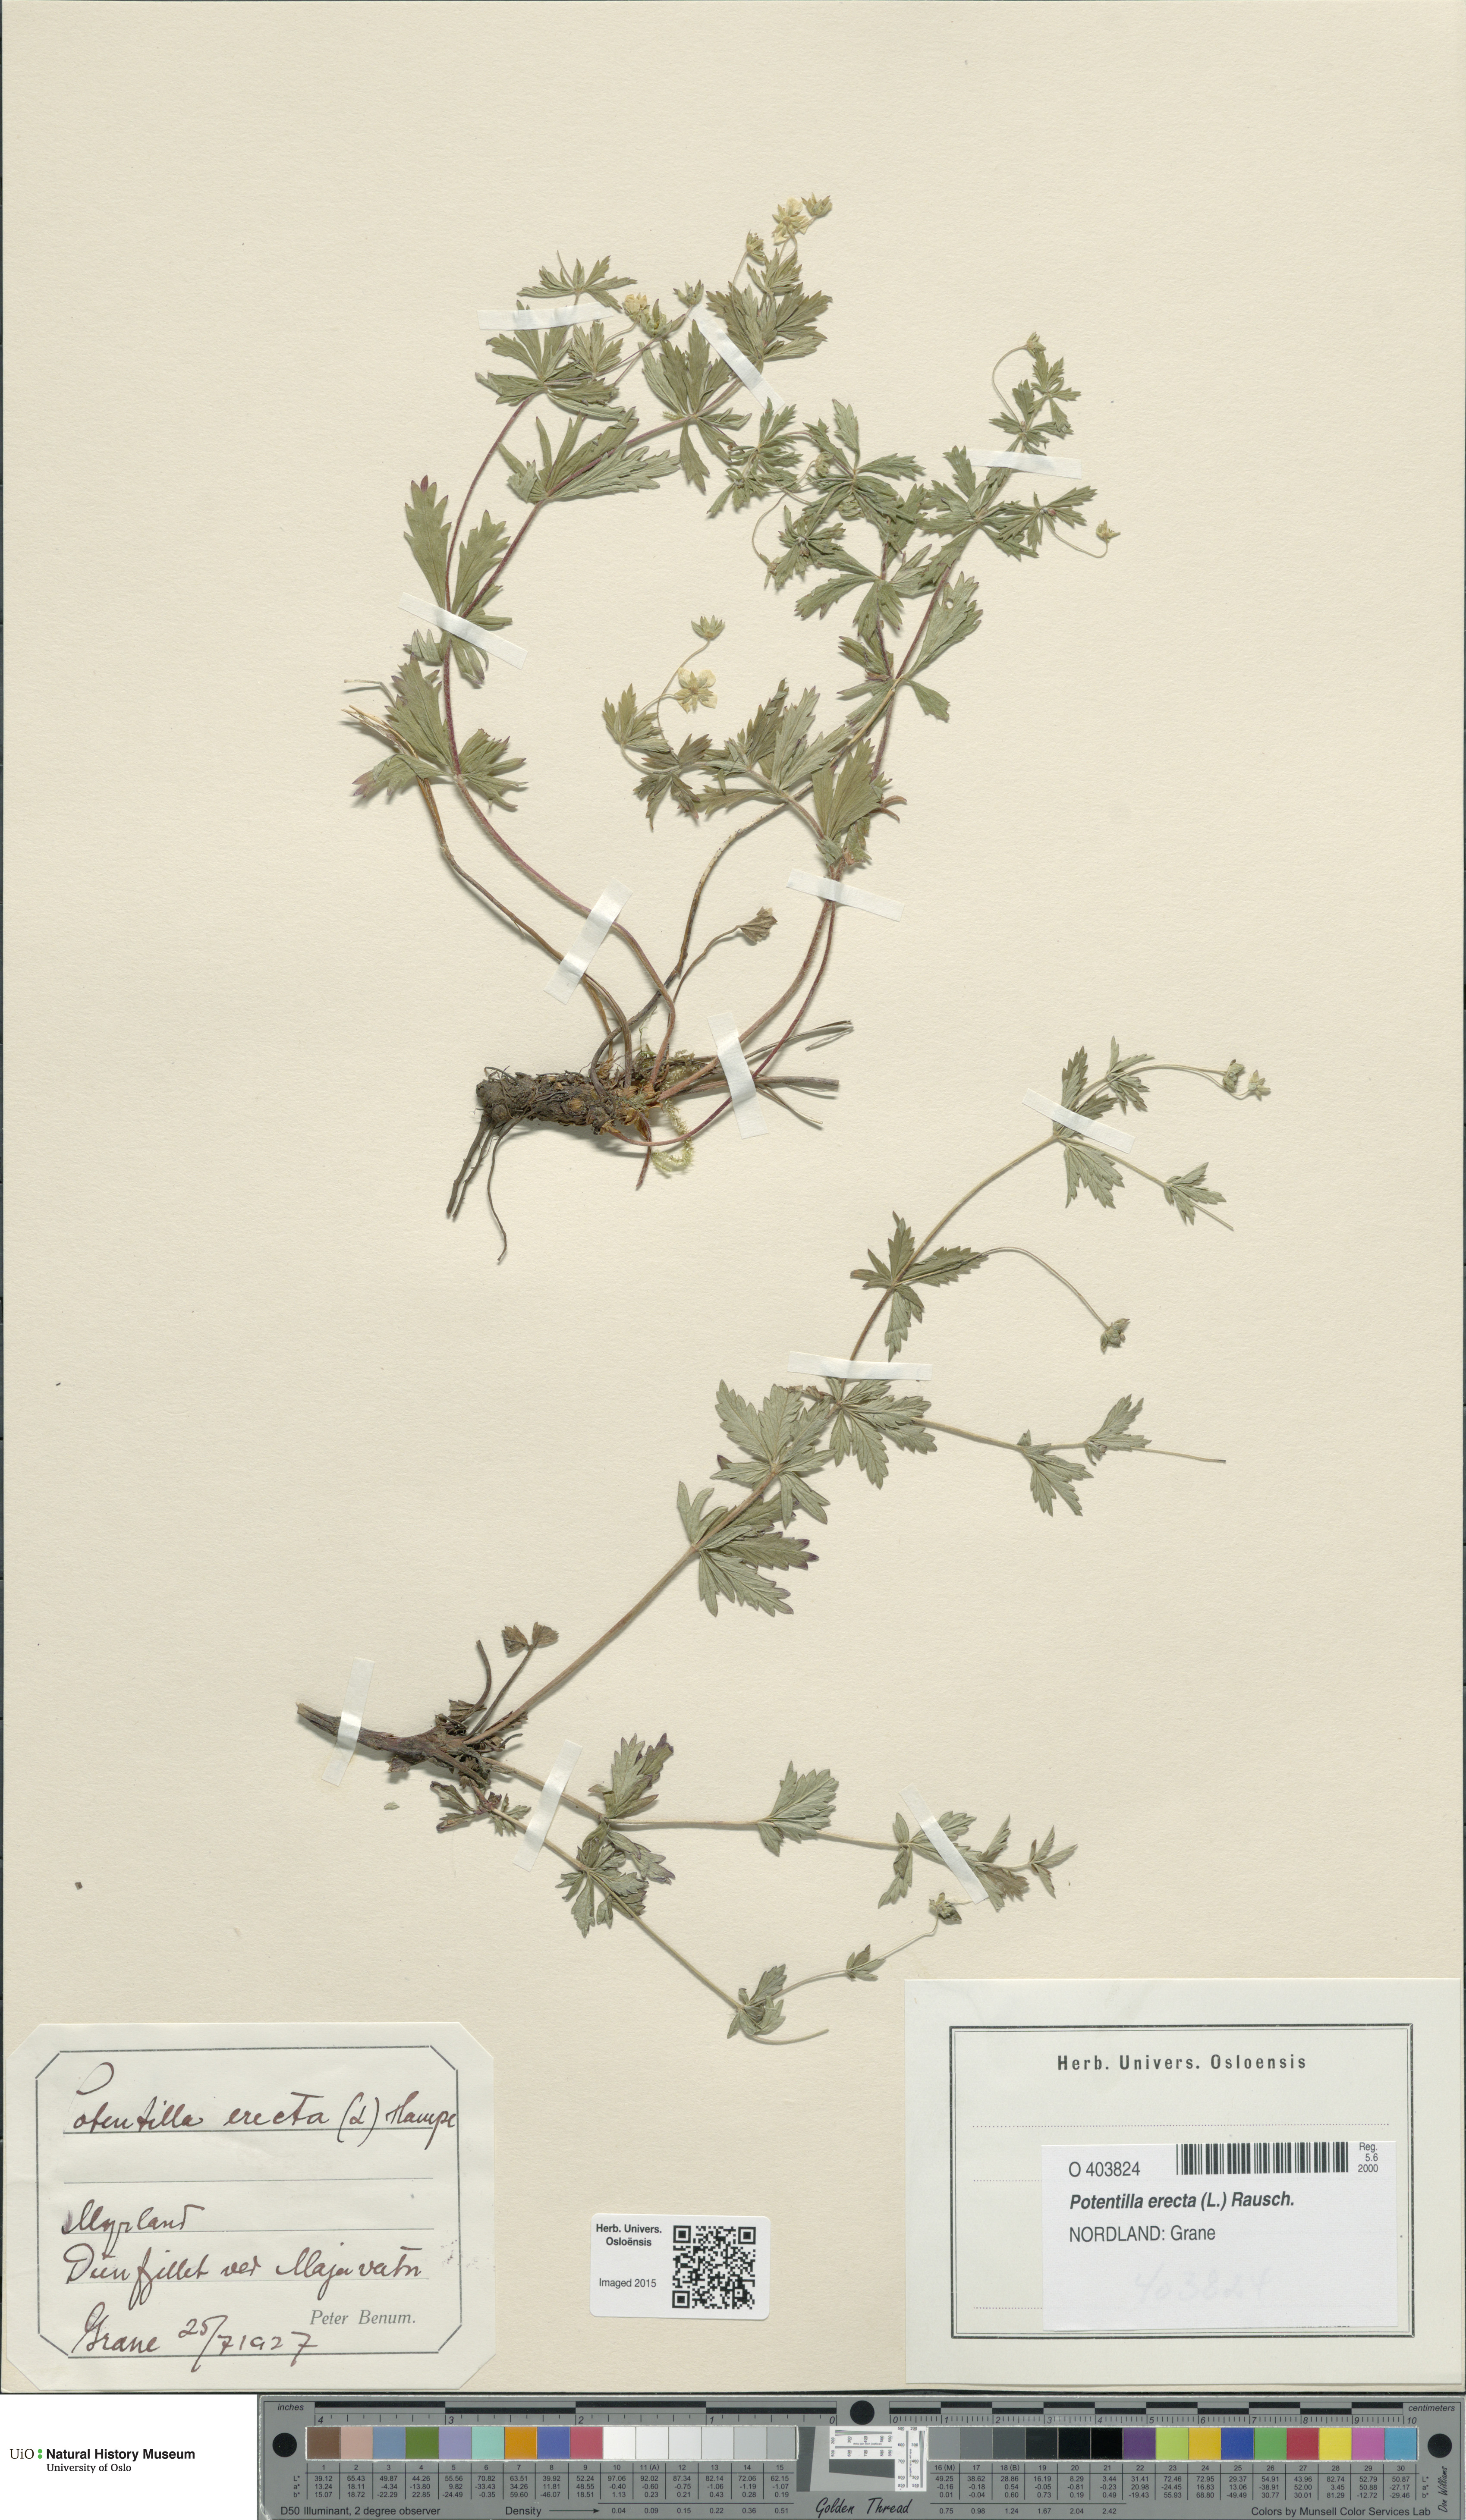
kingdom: Plantae
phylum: Tracheophyta
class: Magnoliopsida
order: Rosales
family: Rosaceae
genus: Potentilla
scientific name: Potentilla erecta
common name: Tormentil
